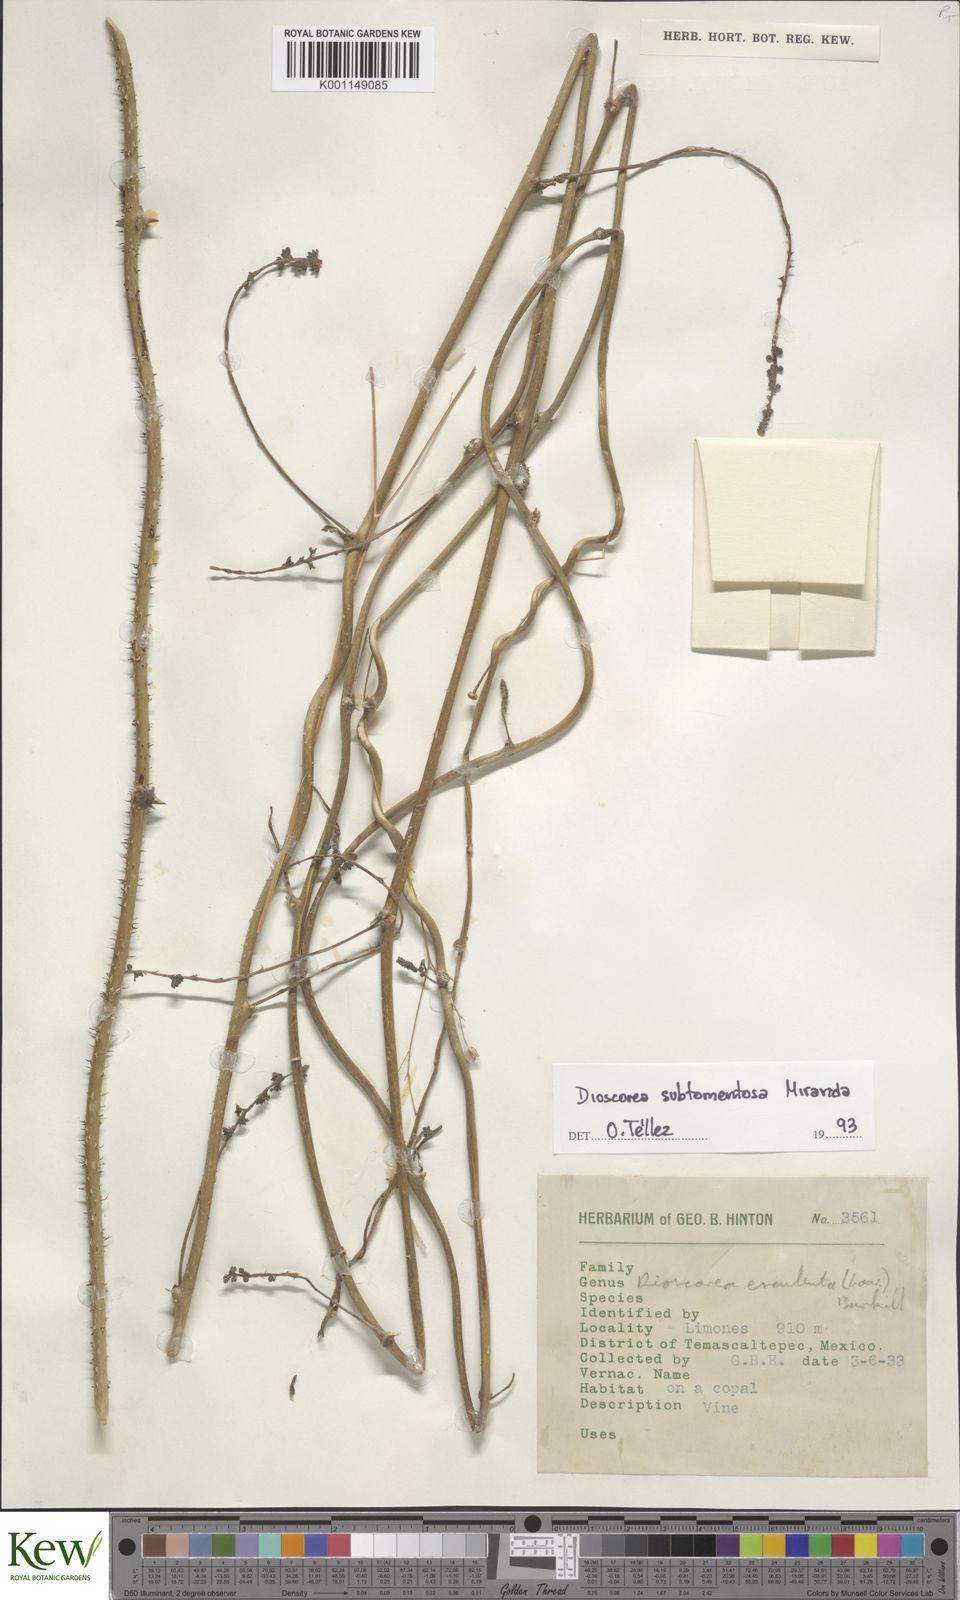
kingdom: Plantae
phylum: Tracheophyta
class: Liliopsida
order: Dioscoreales
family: Dioscoreaceae
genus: Dioscorea
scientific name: Dioscorea subtomentosa
